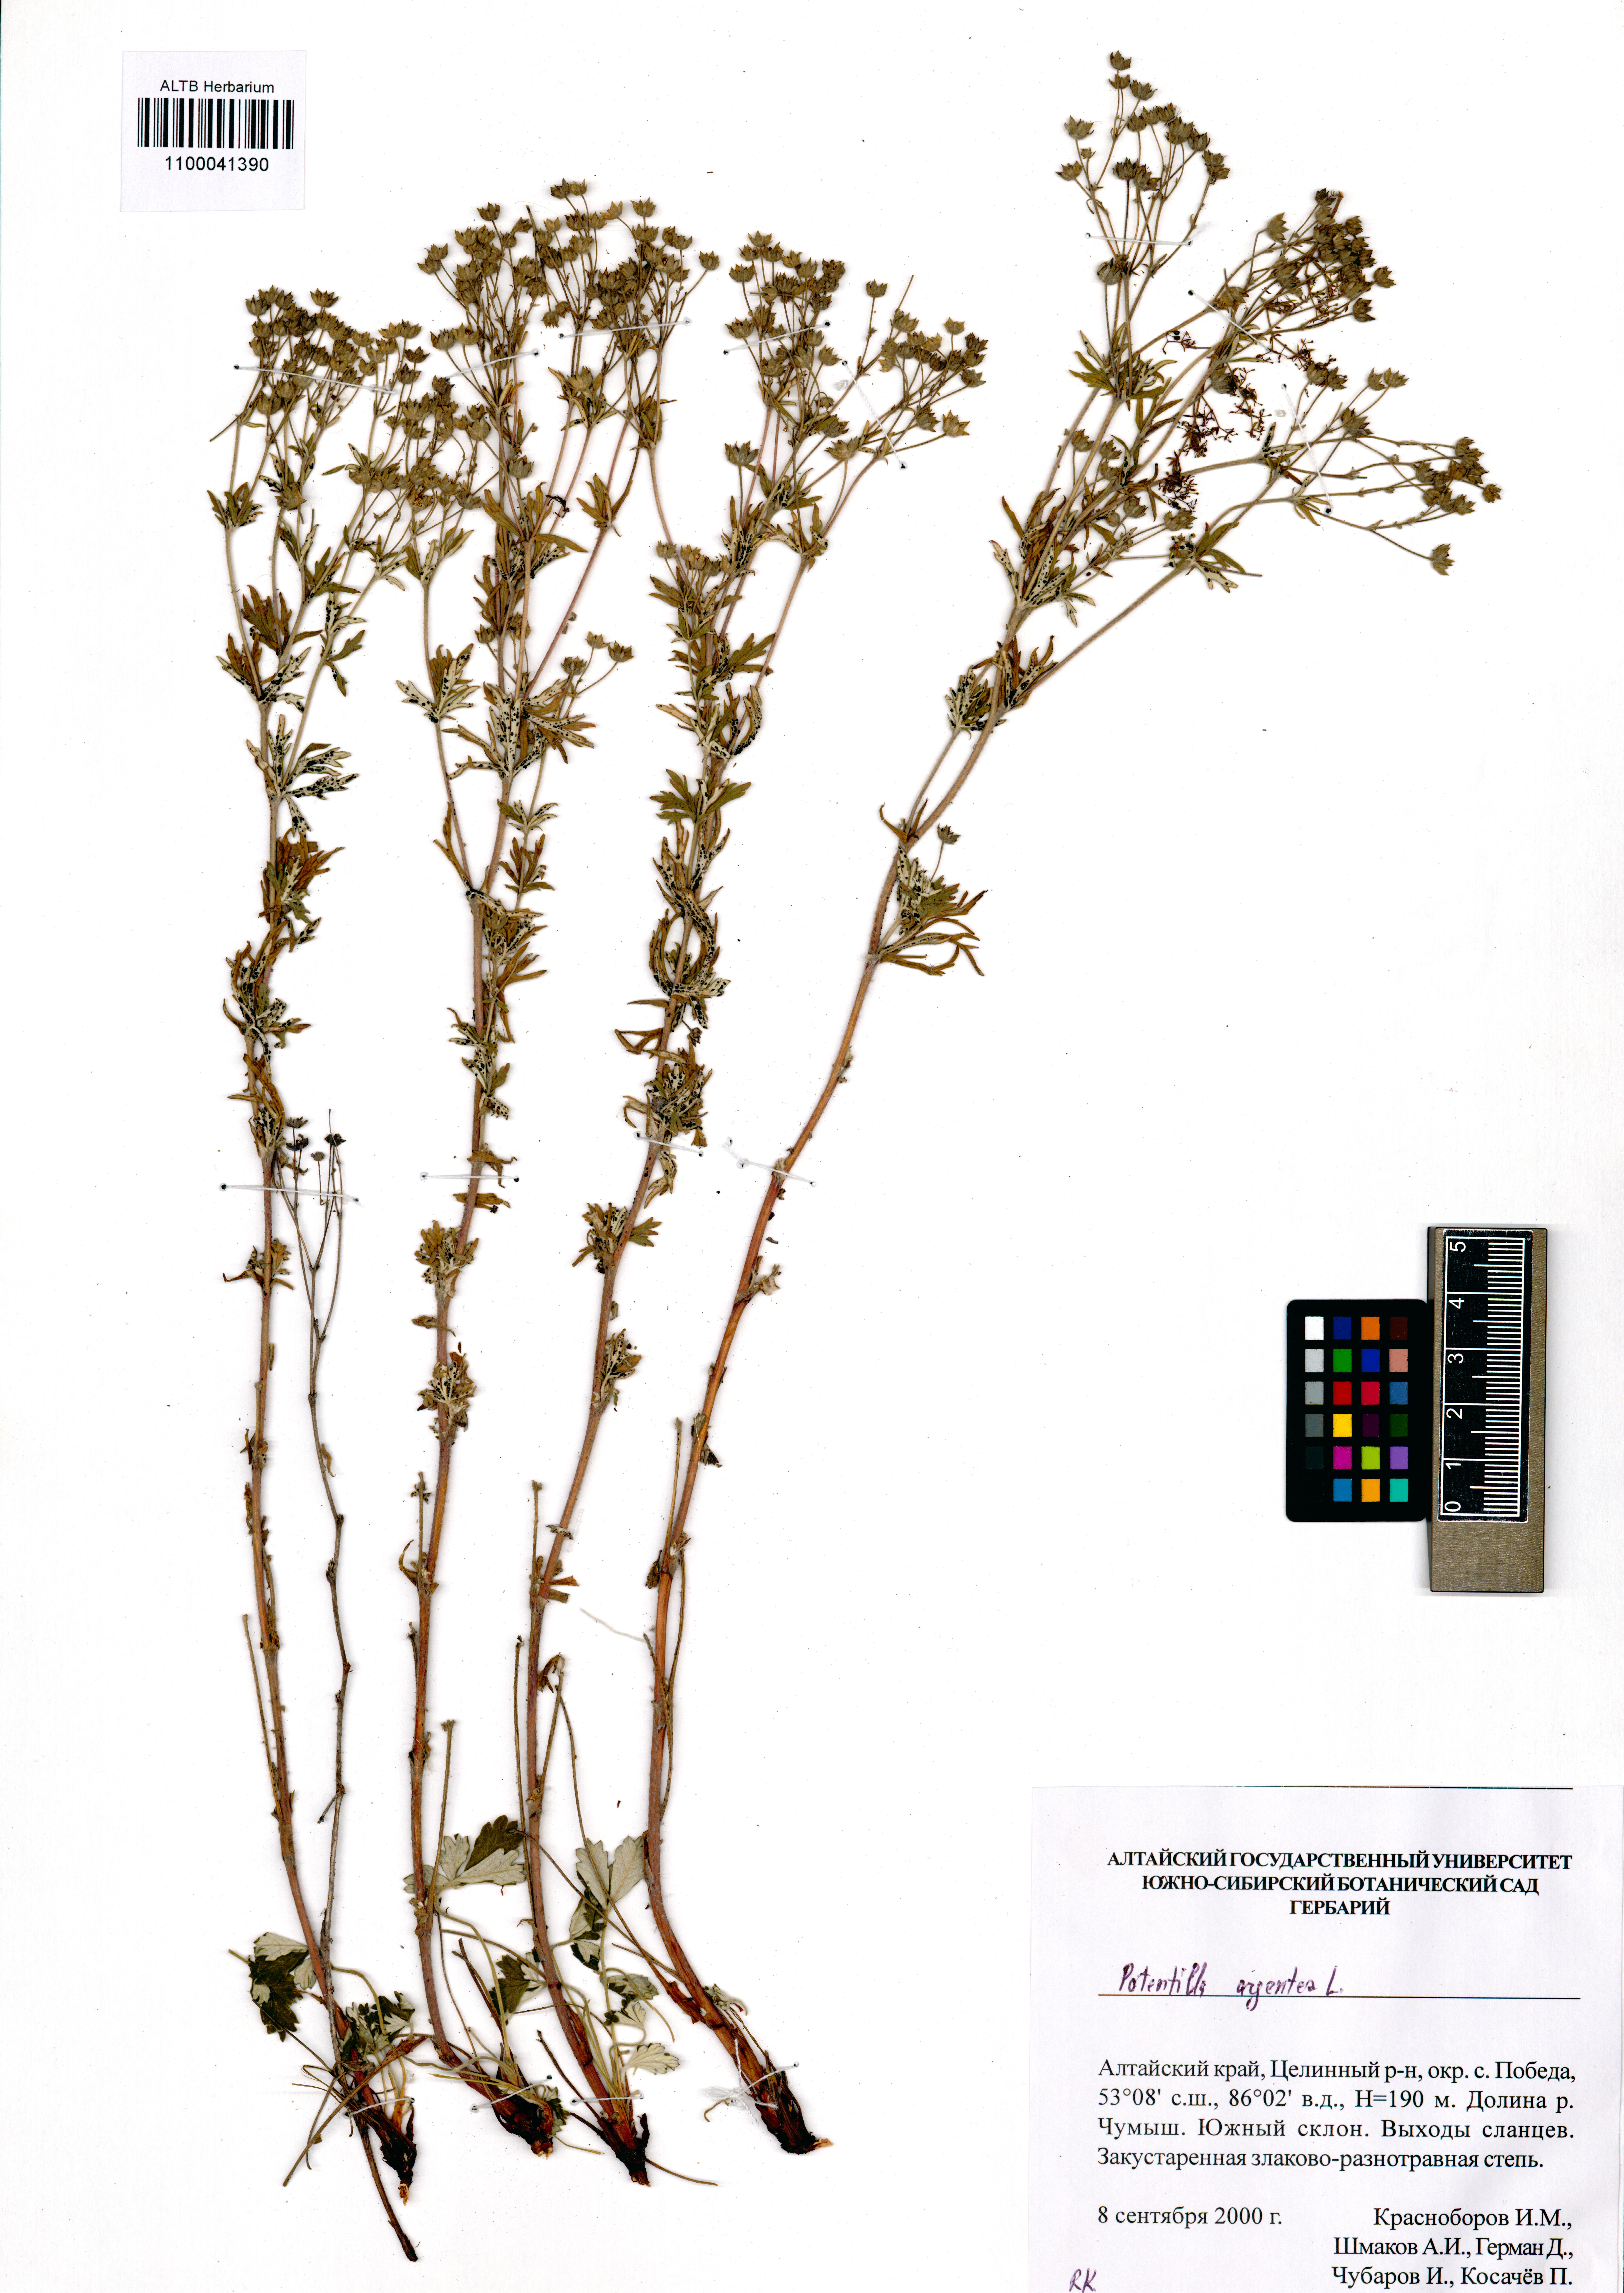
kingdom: Plantae
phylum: Tracheophyta
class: Magnoliopsida
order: Rosales
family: Rosaceae
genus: Potentilla
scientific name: Potentilla argentea
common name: Hoary cinquefoil
